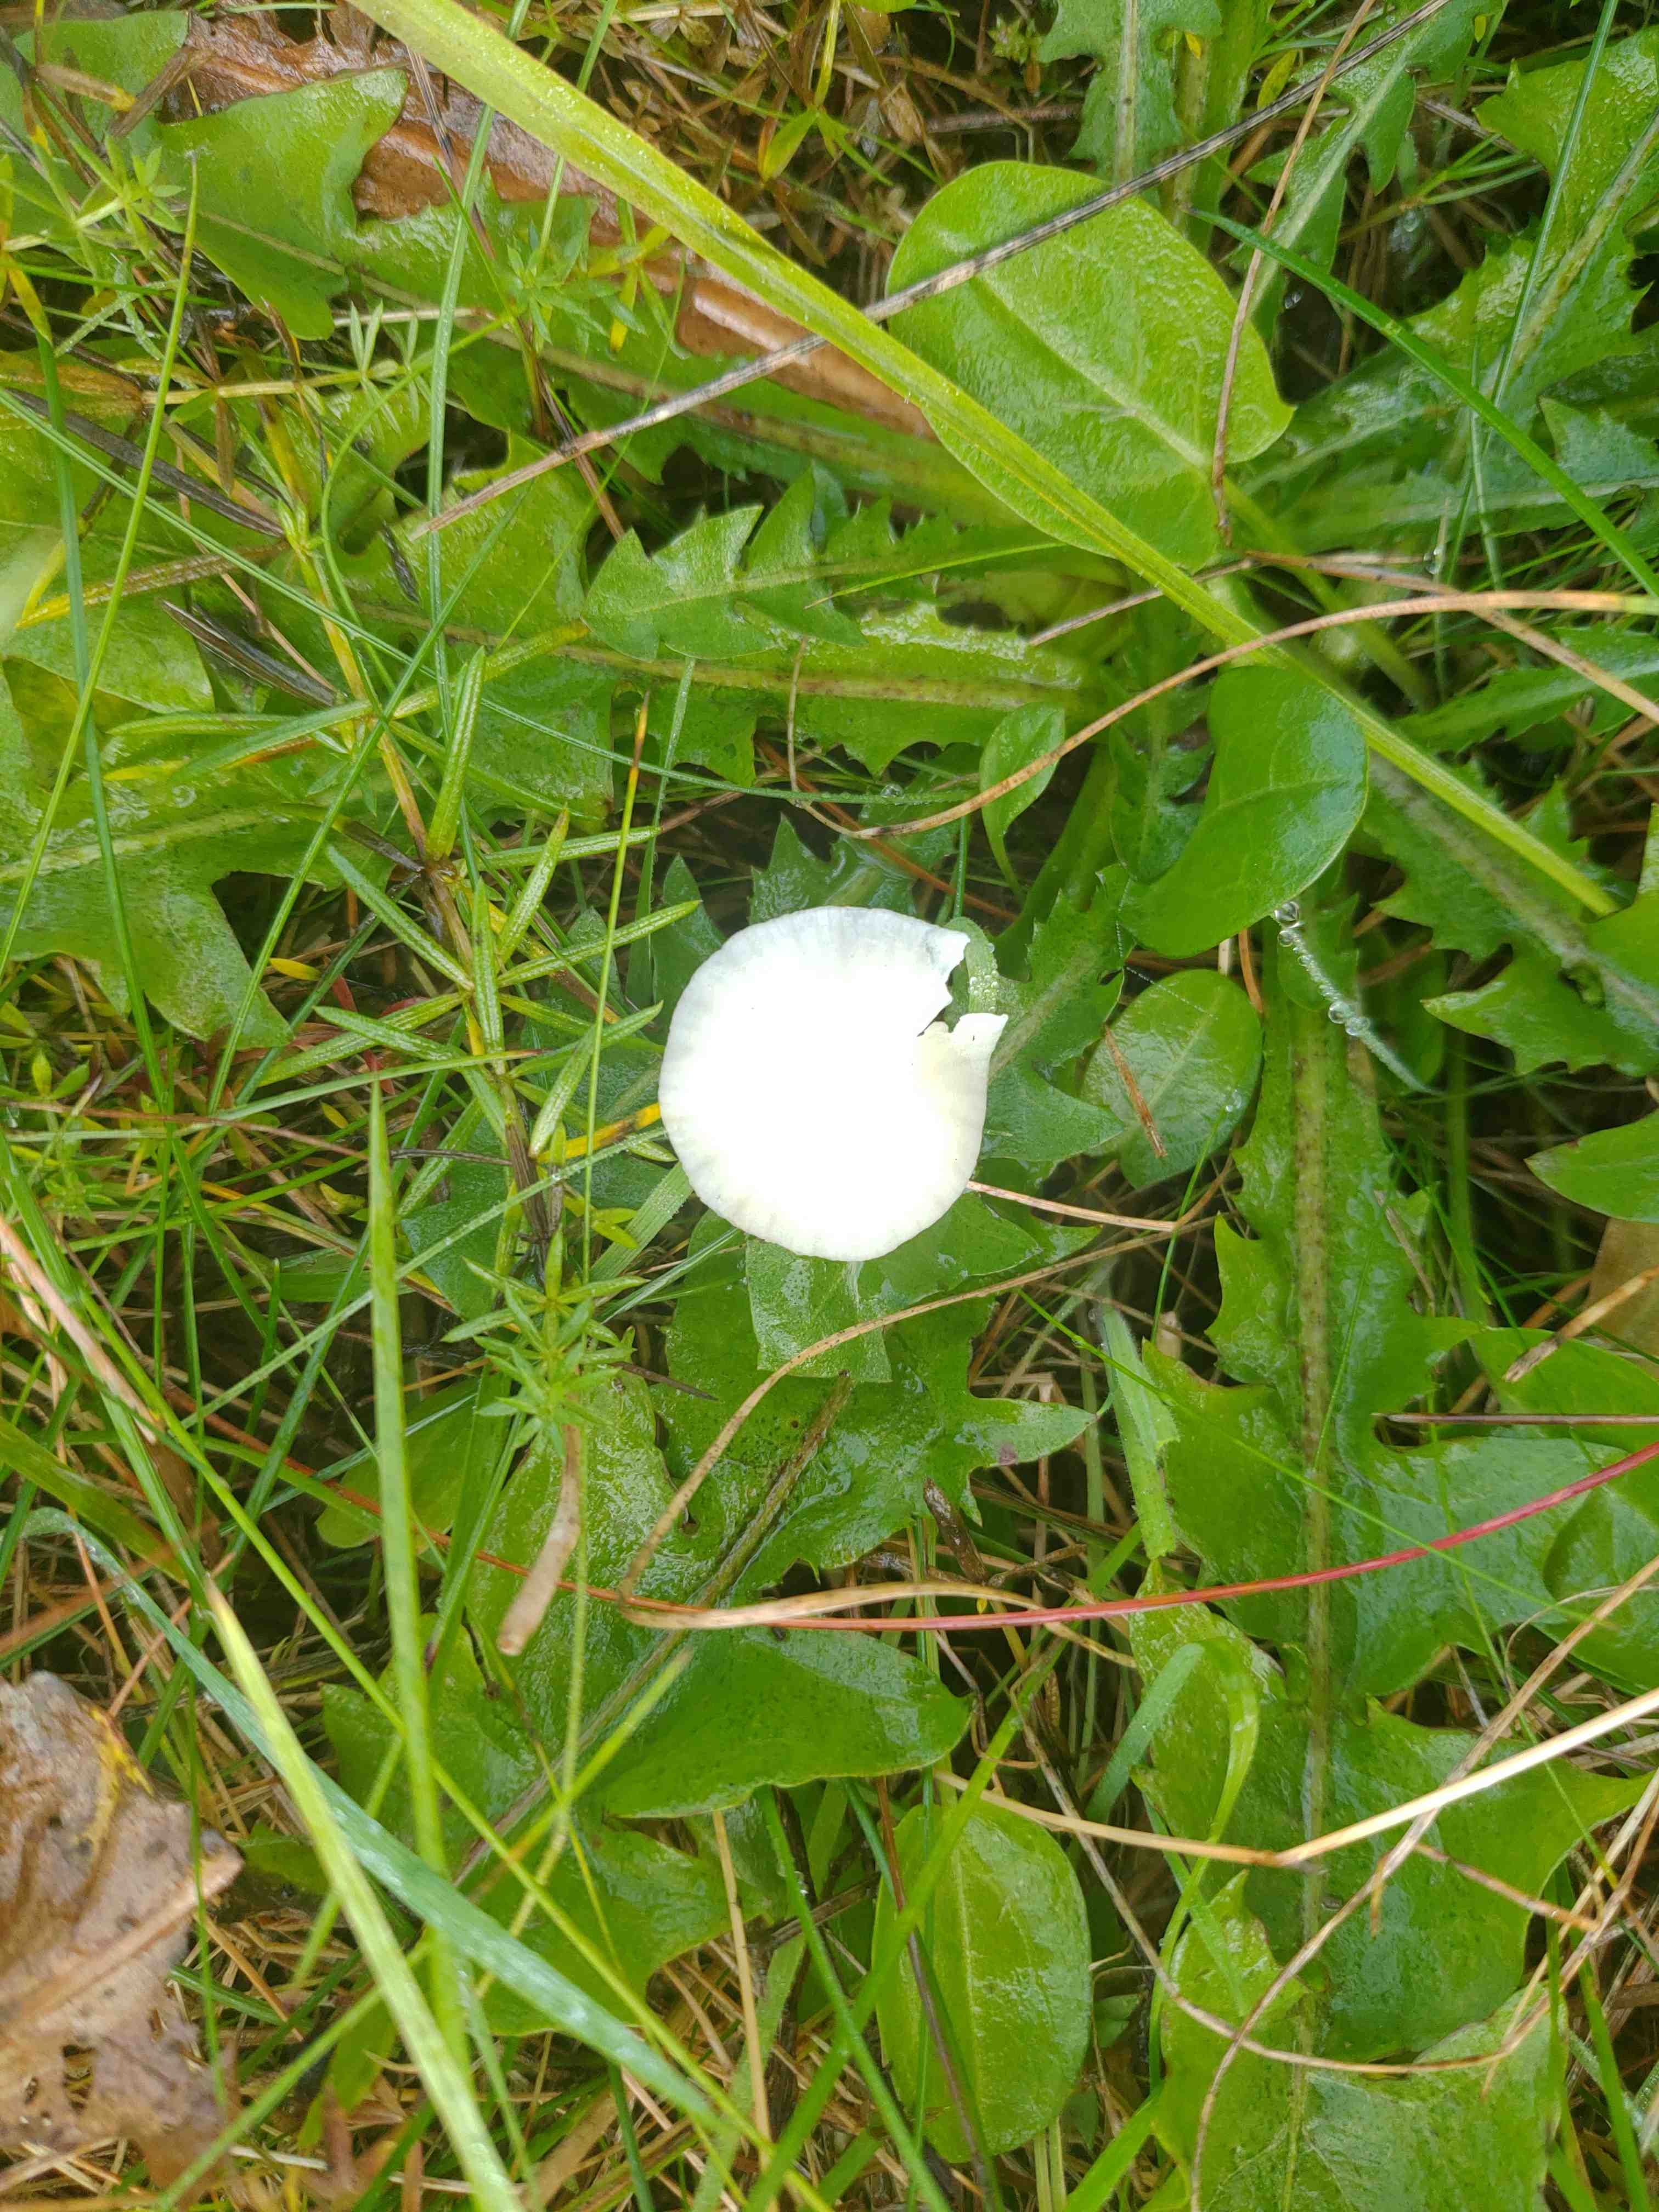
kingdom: Fungi
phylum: Basidiomycota
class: Agaricomycetes
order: Agaricales
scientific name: Agaricales
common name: champignonordenen
